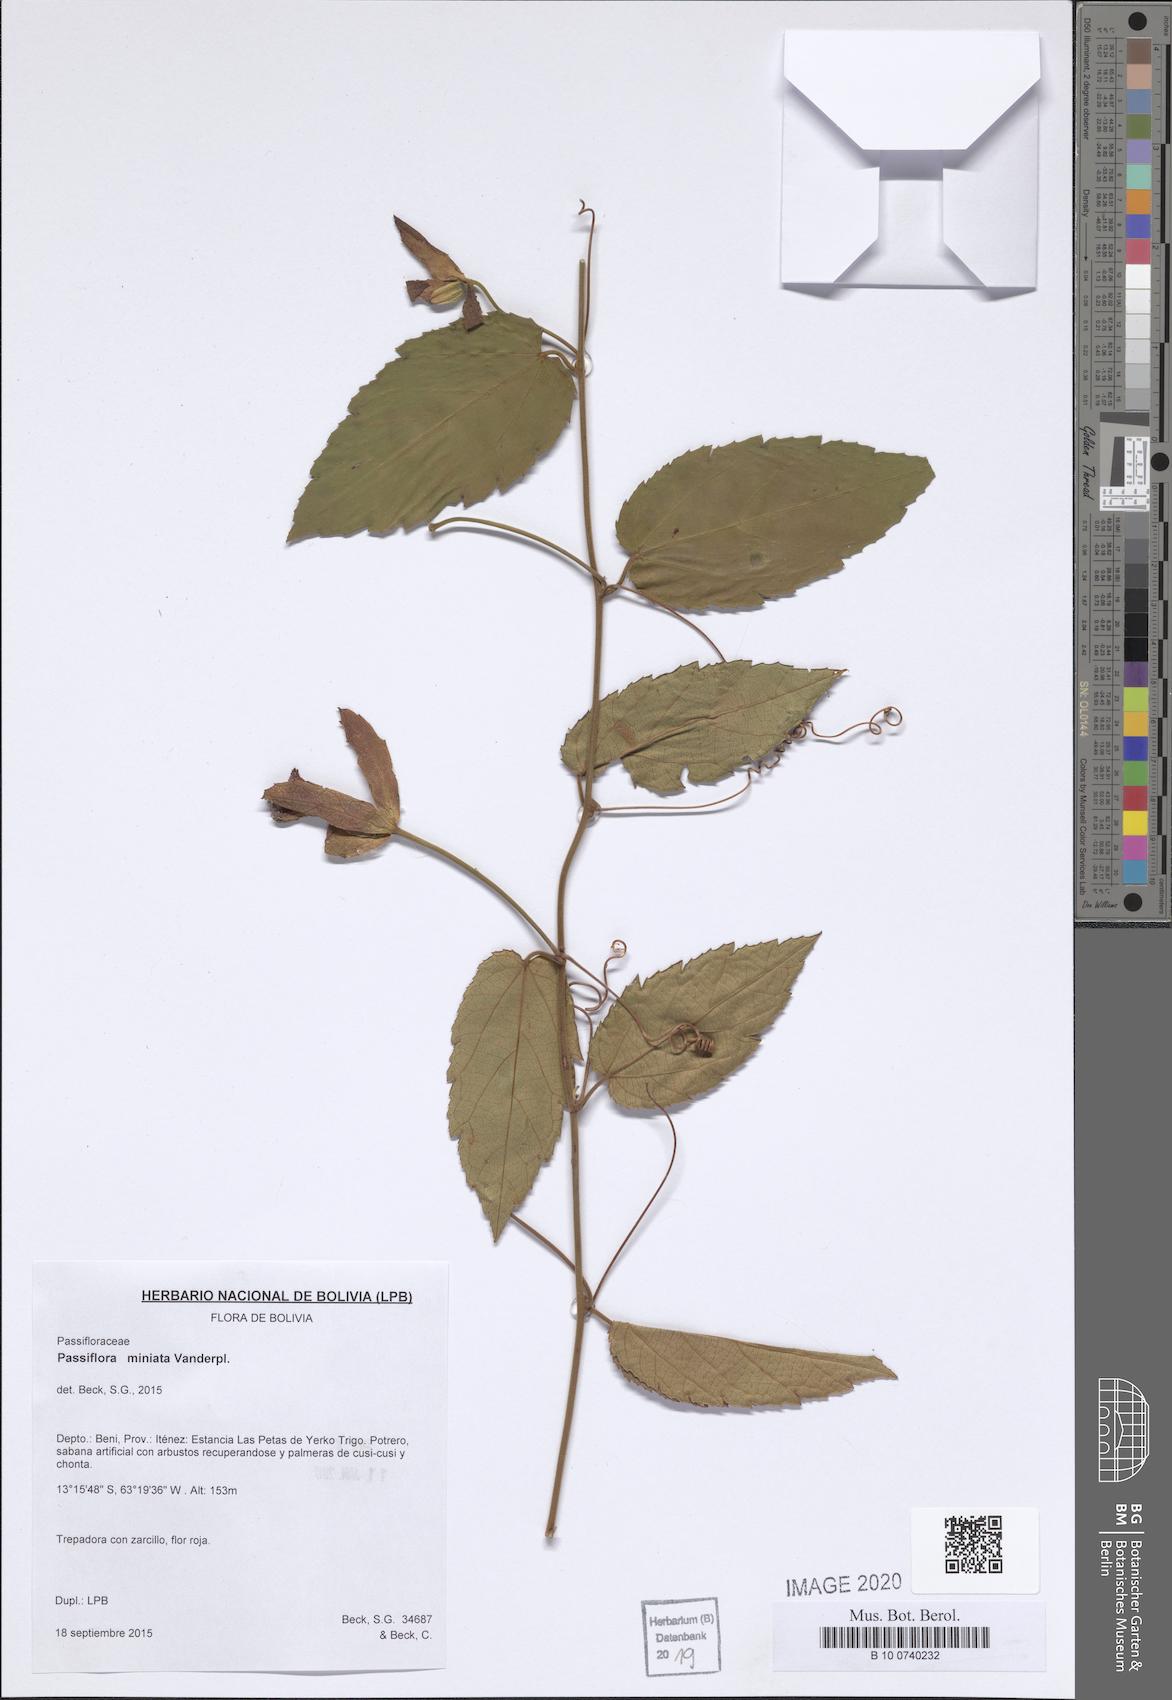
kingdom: Plantae
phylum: Tracheophyta
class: Magnoliopsida
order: Malpighiales
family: Passifloraceae
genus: Passiflora
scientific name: Passiflora miniata
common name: Red granadilla
